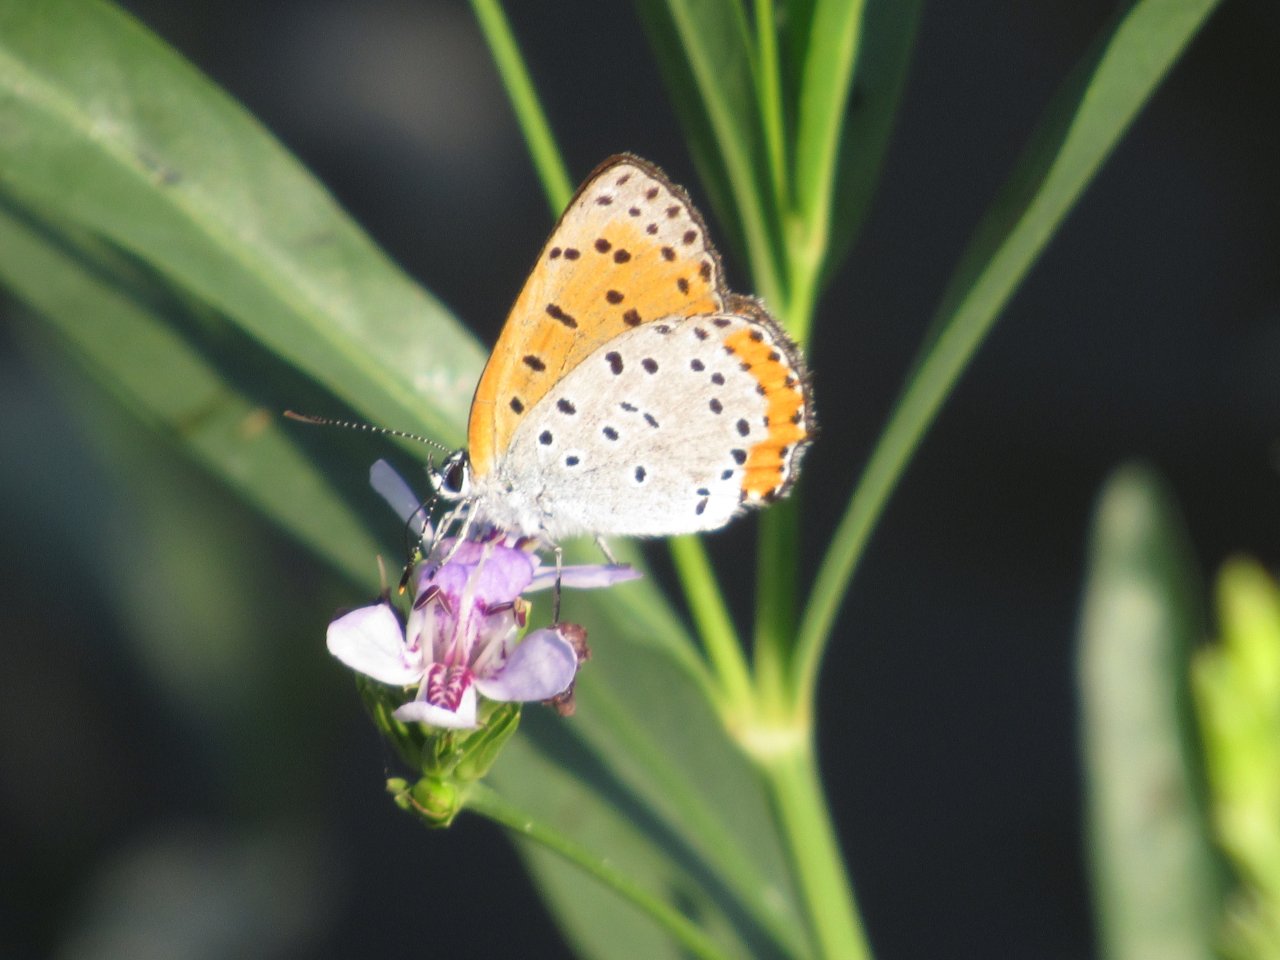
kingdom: Animalia
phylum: Arthropoda
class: Insecta
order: Lepidoptera
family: Sesiidae
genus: Sesia
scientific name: Sesia Lycaena hyllus
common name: Bronze Copper
